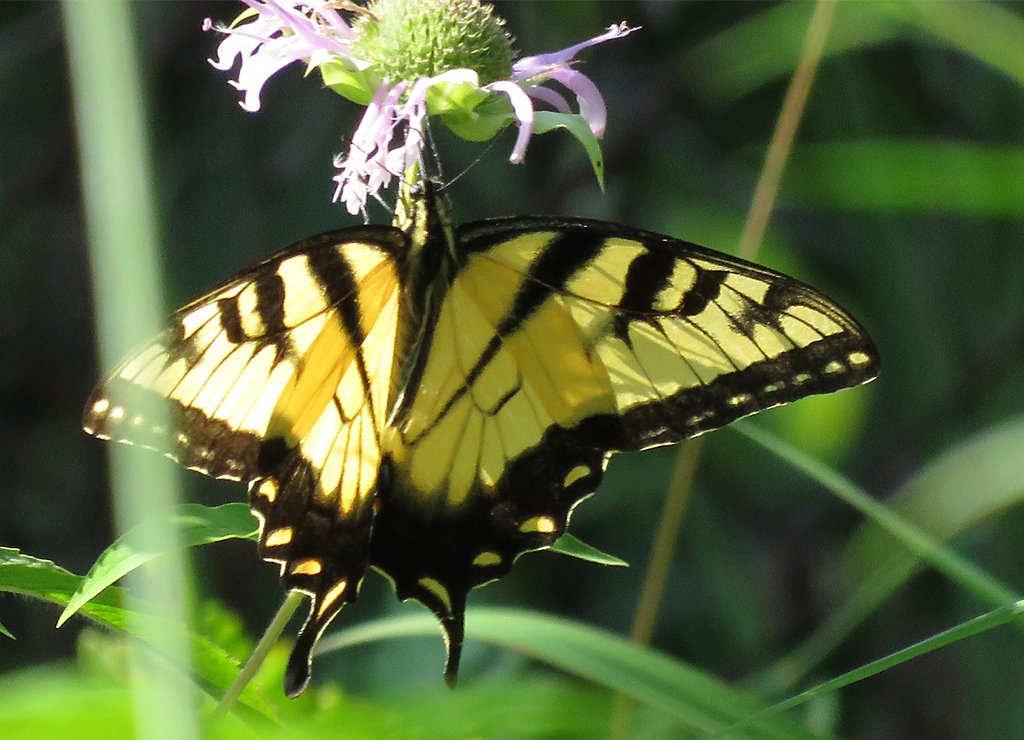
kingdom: Animalia
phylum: Arthropoda
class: Insecta
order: Lepidoptera
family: Papilionidae
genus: Pterourus
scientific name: Pterourus glaucus
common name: Eastern Tiger Swallowtail
